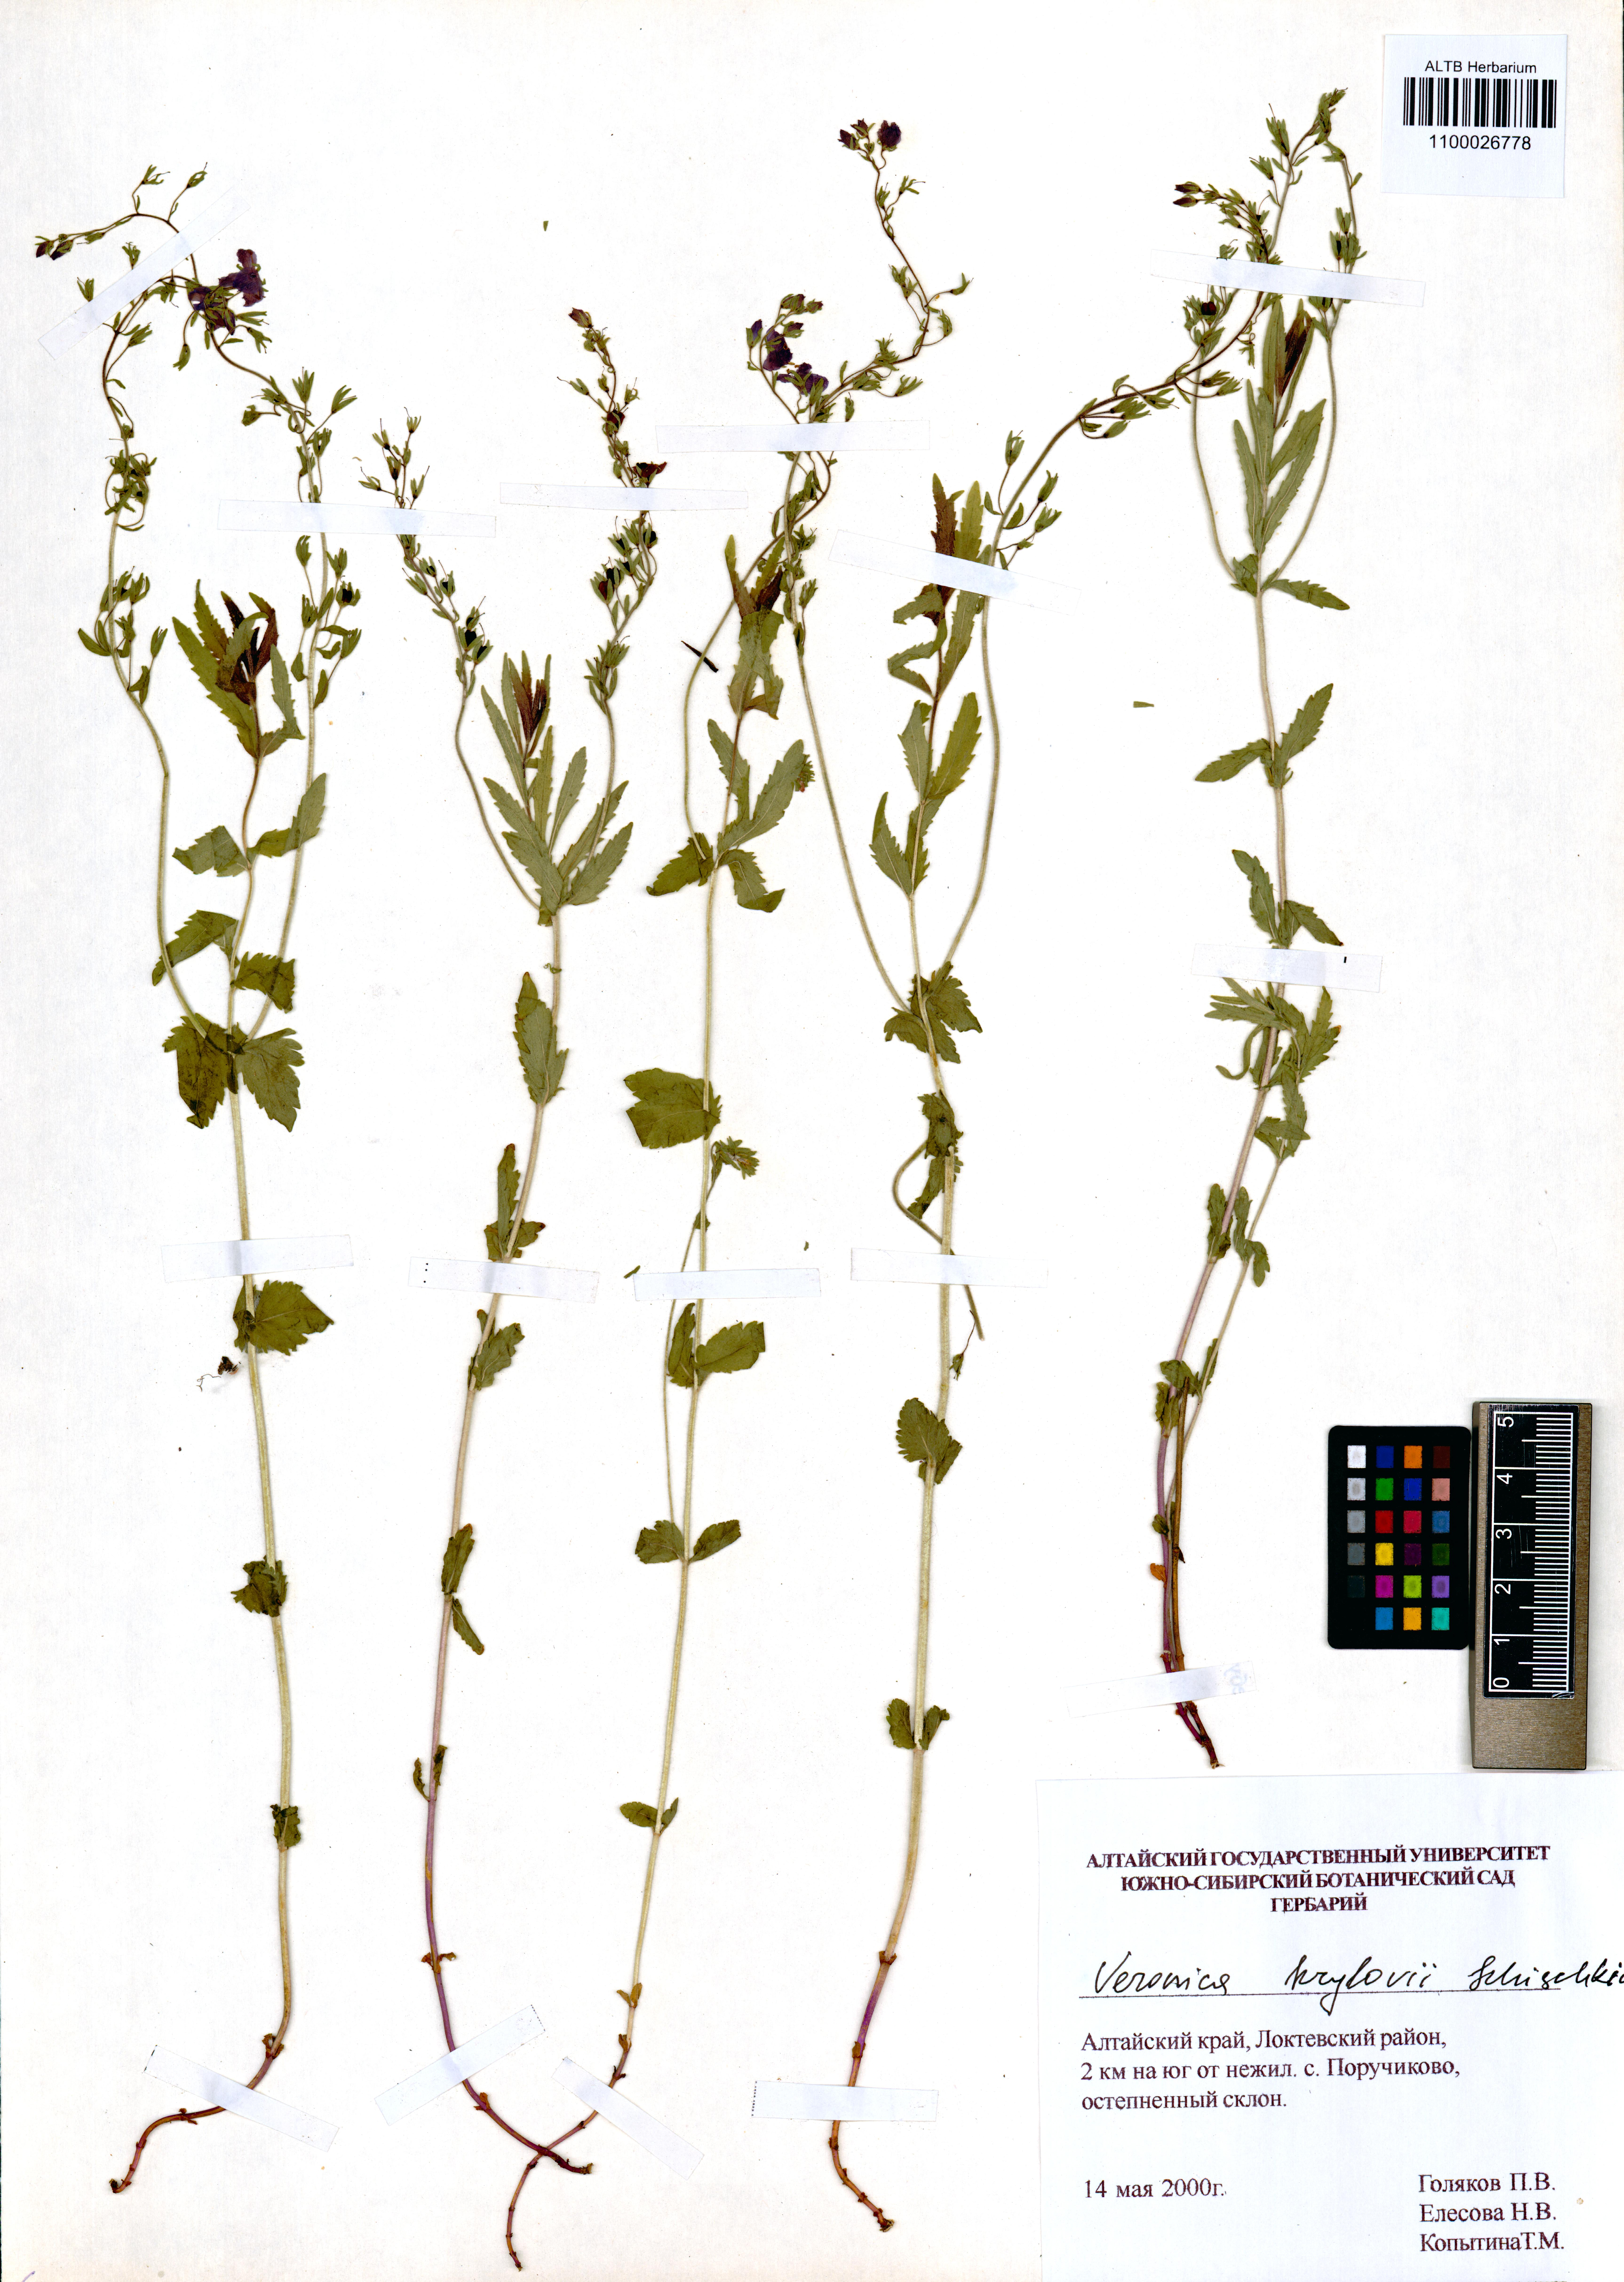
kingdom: Plantae
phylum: Tracheophyta
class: Magnoliopsida
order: Lamiales
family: Plantaginaceae
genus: Veronica
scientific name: Veronica krylovii
